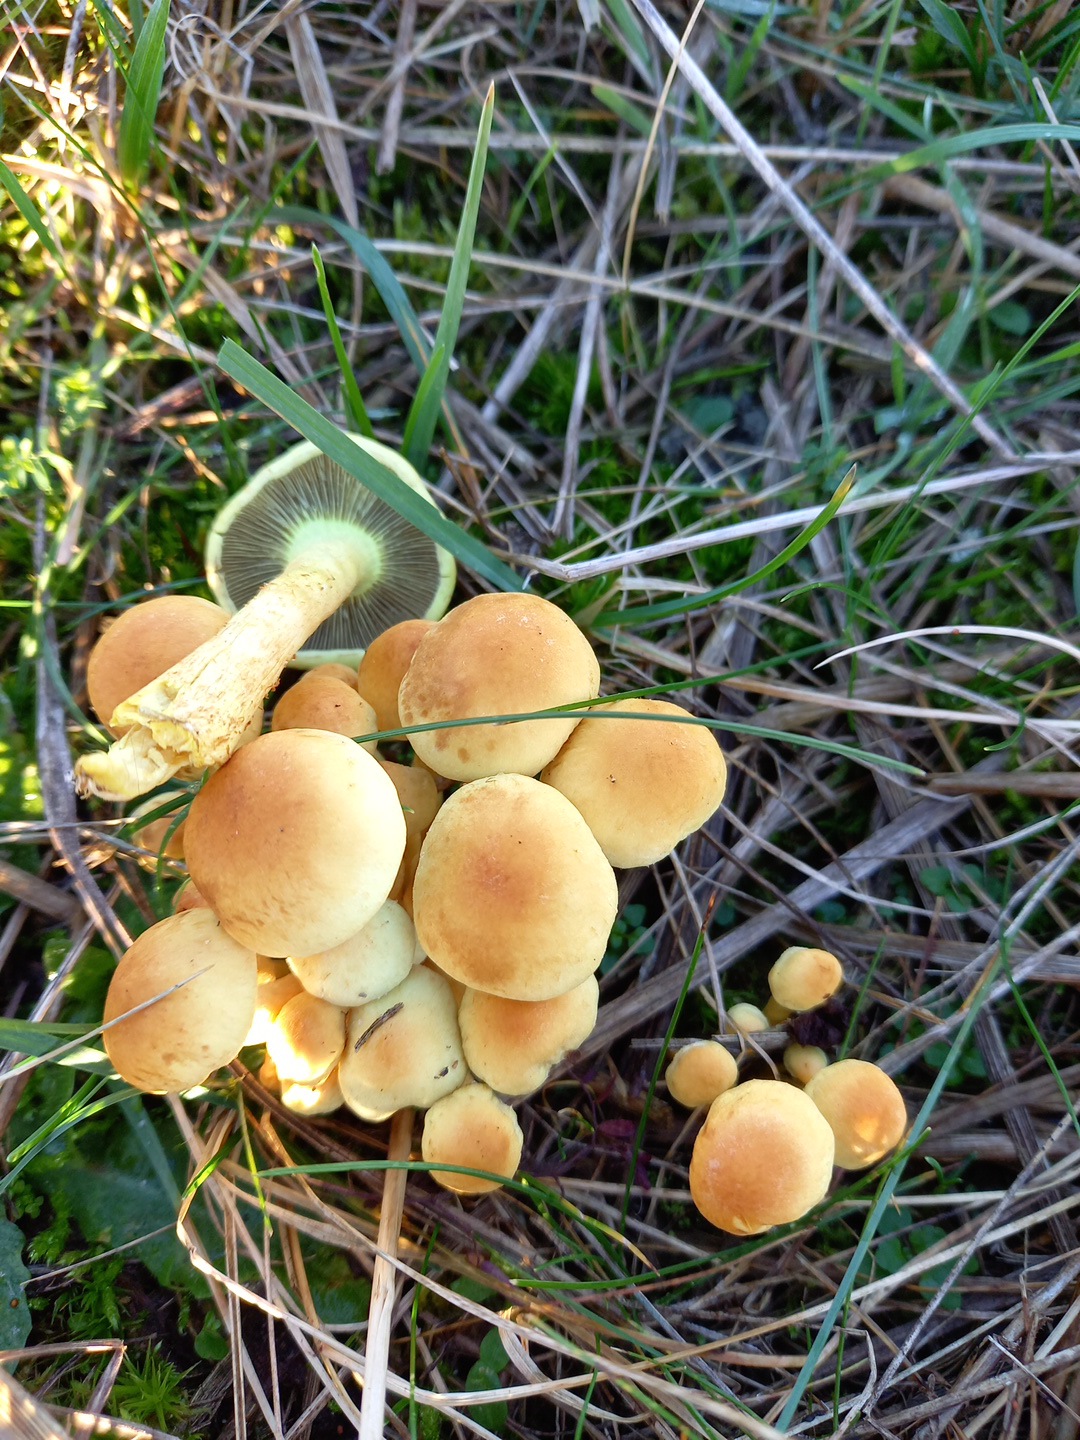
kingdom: Fungi
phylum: Basidiomycota
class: Agaricomycetes
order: Agaricales
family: Strophariaceae
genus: Hypholoma
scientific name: Hypholoma fasciculare
